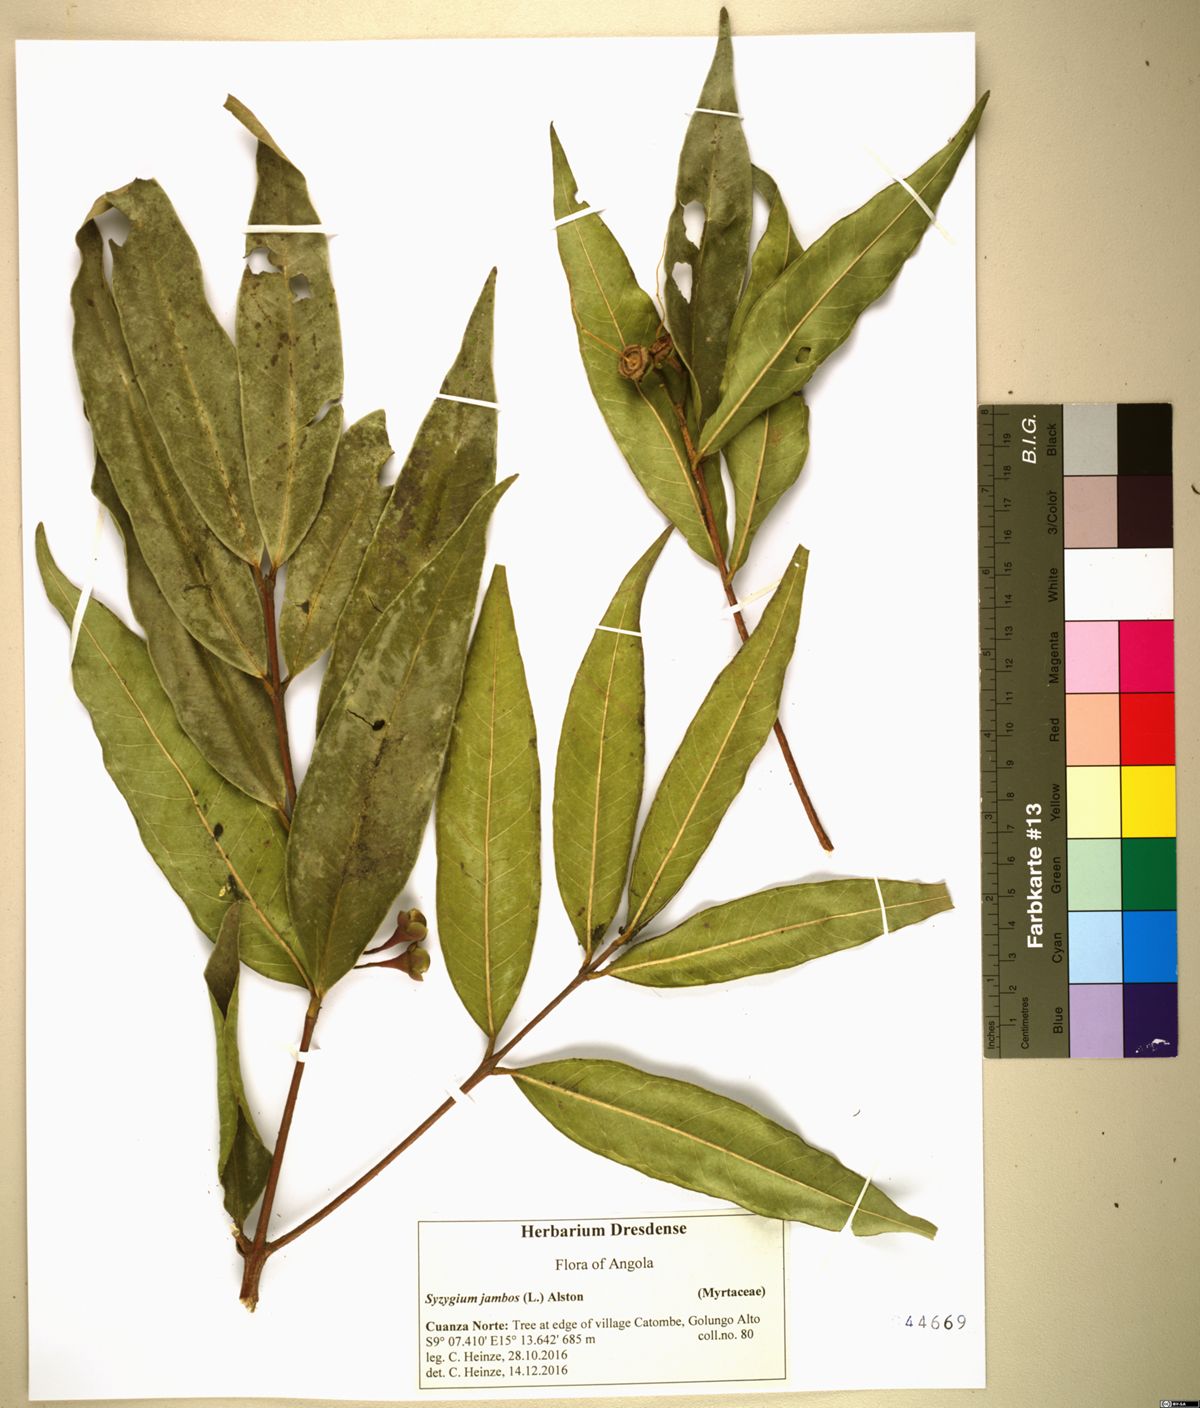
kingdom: Plantae
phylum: Tracheophyta
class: Magnoliopsida
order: Myrtales
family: Myrtaceae
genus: Syzygium
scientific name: Syzygium jambos
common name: Malabar plum
